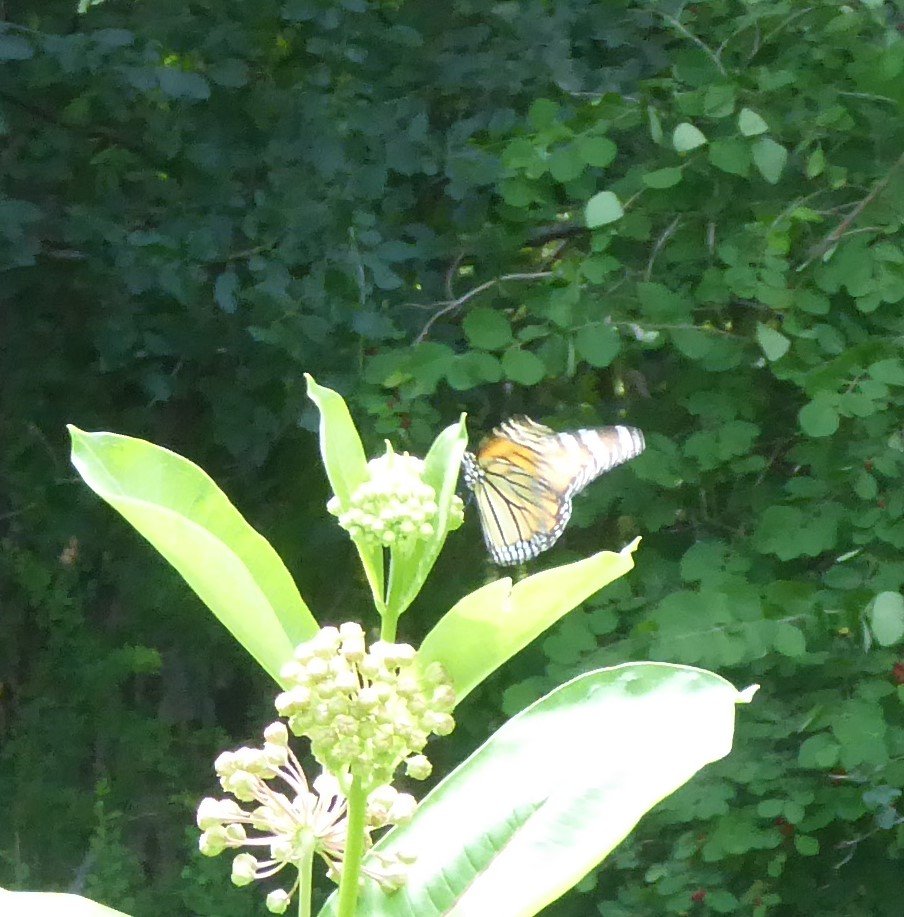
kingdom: Animalia
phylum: Arthropoda
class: Insecta
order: Lepidoptera
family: Nymphalidae
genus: Danaus
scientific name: Danaus plexippus
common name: Monarch
